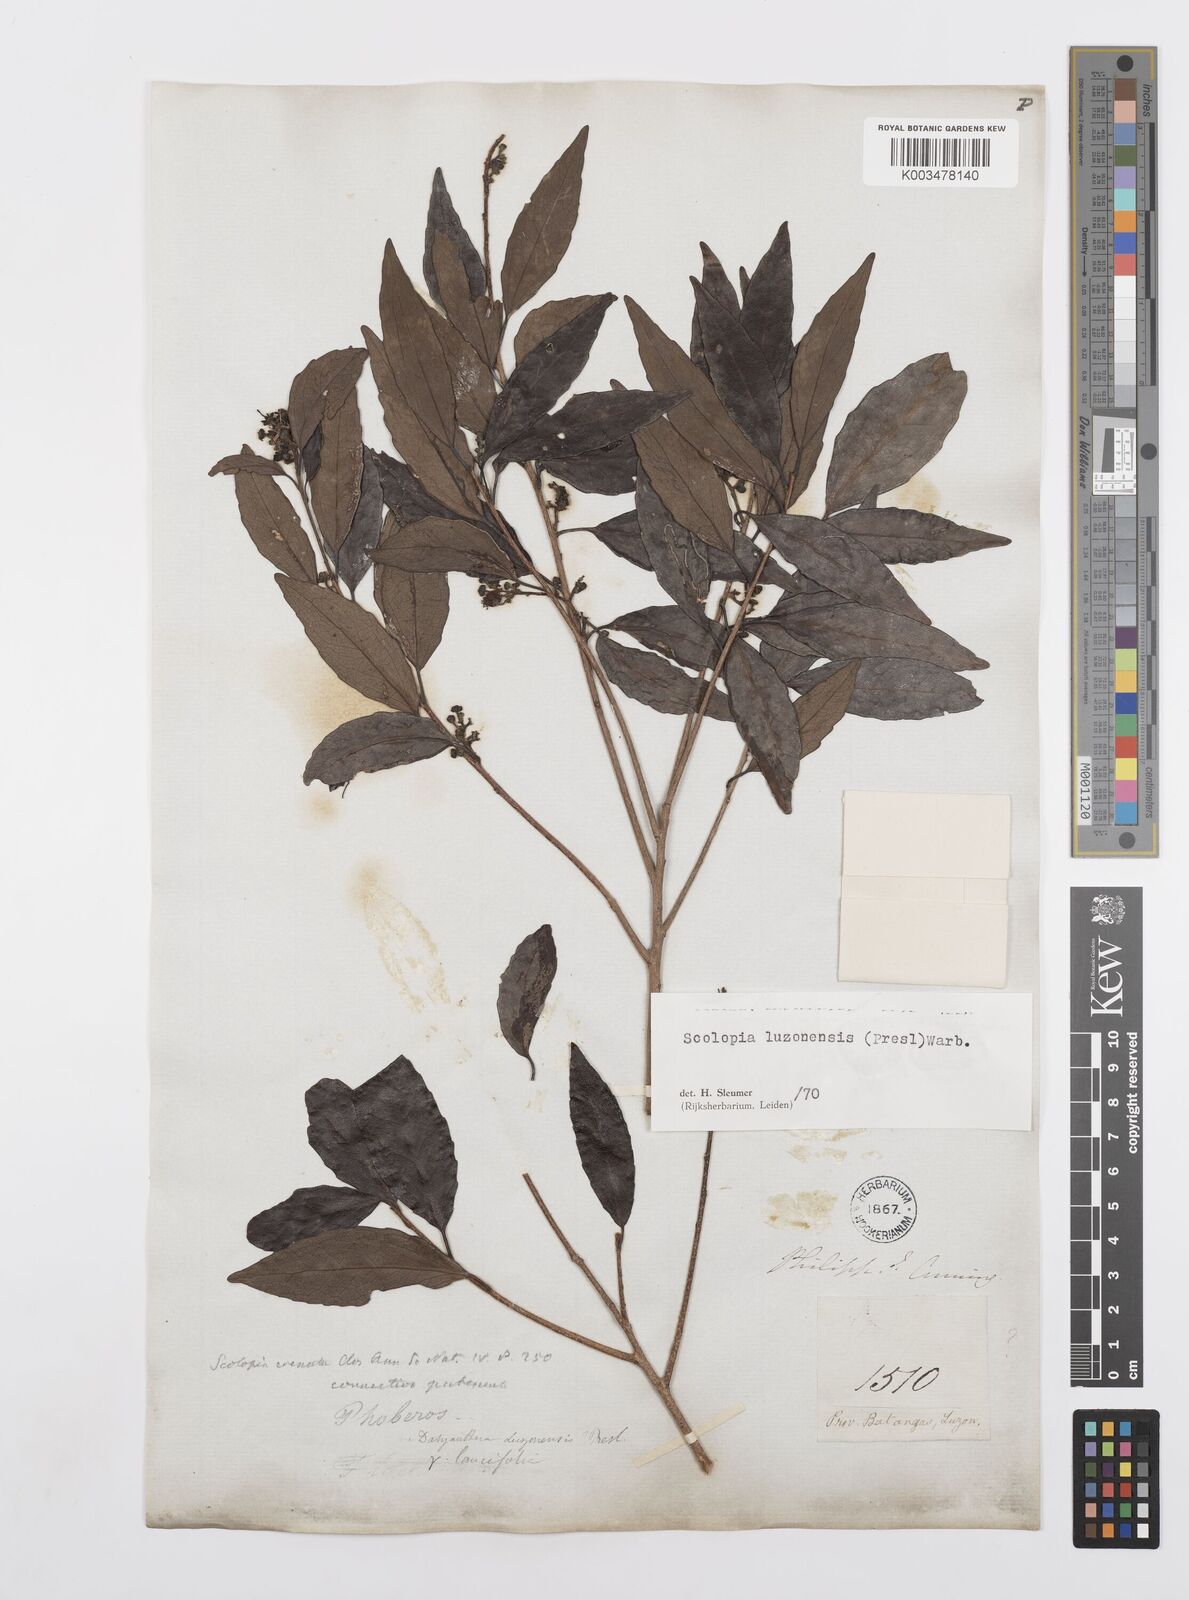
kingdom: Plantae
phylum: Tracheophyta
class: Magnoliopsida
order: Malpighiales
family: Salicaceae
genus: Scolopia
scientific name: Scolopia luzonensis
